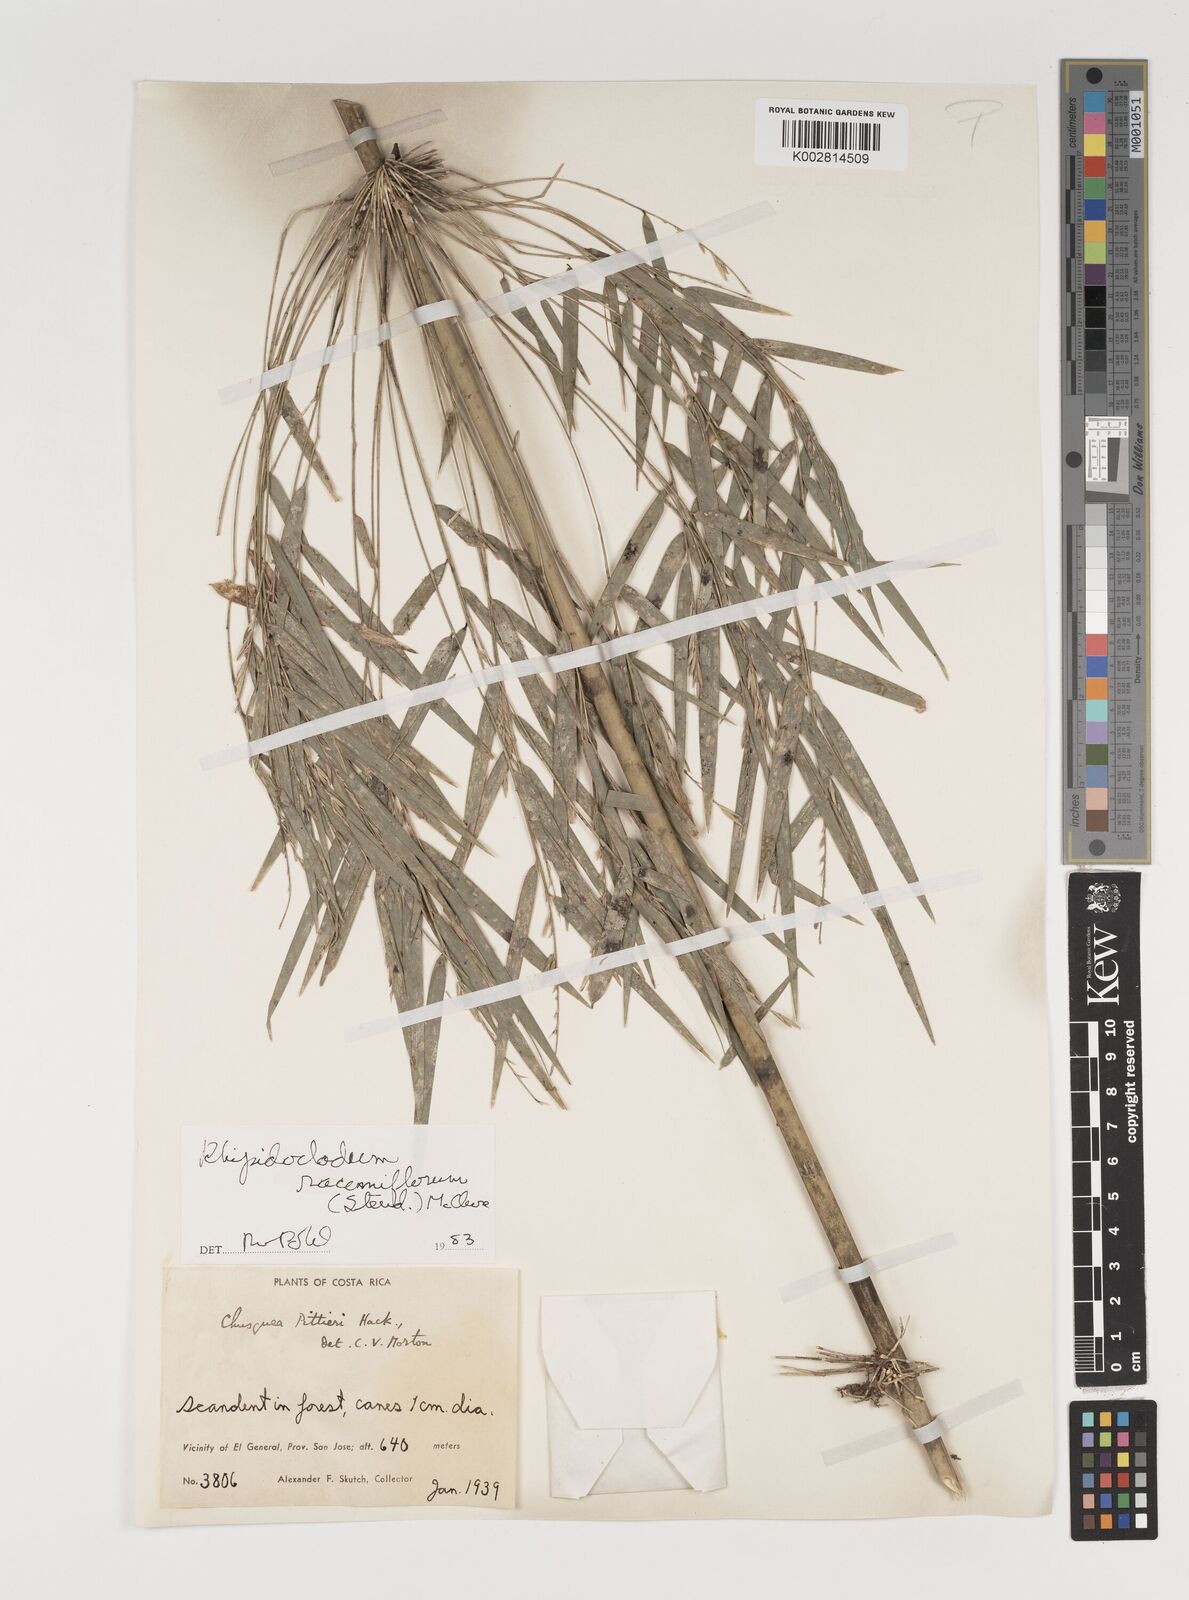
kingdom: Plantae
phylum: Tracheophyta
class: Liliopsida
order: Poales
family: Poaceae
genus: Rhipidocladum
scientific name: Rhipidocladum racemiflorum
